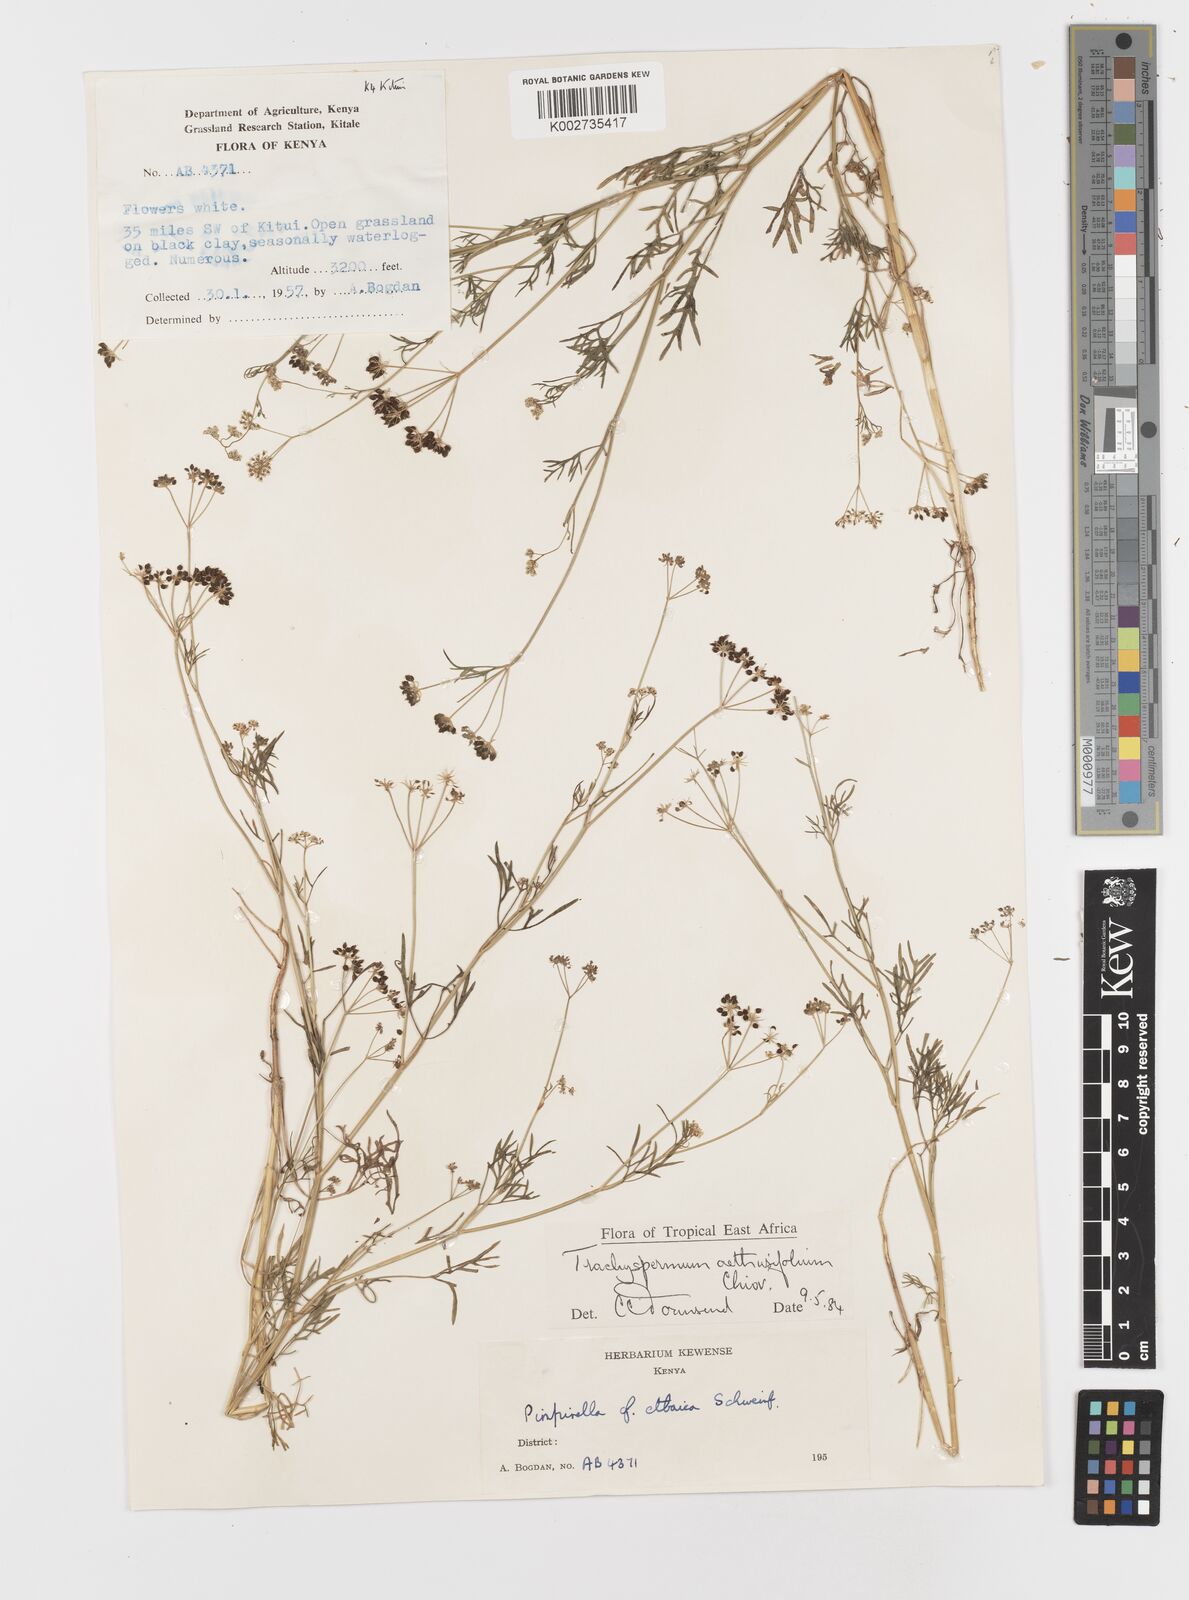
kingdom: Plantae
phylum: Tracheophyta
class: Magnoliopsida
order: Apiales
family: Apiaceae
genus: Trachyspermum
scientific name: Trachyspermum pimpinelloides
